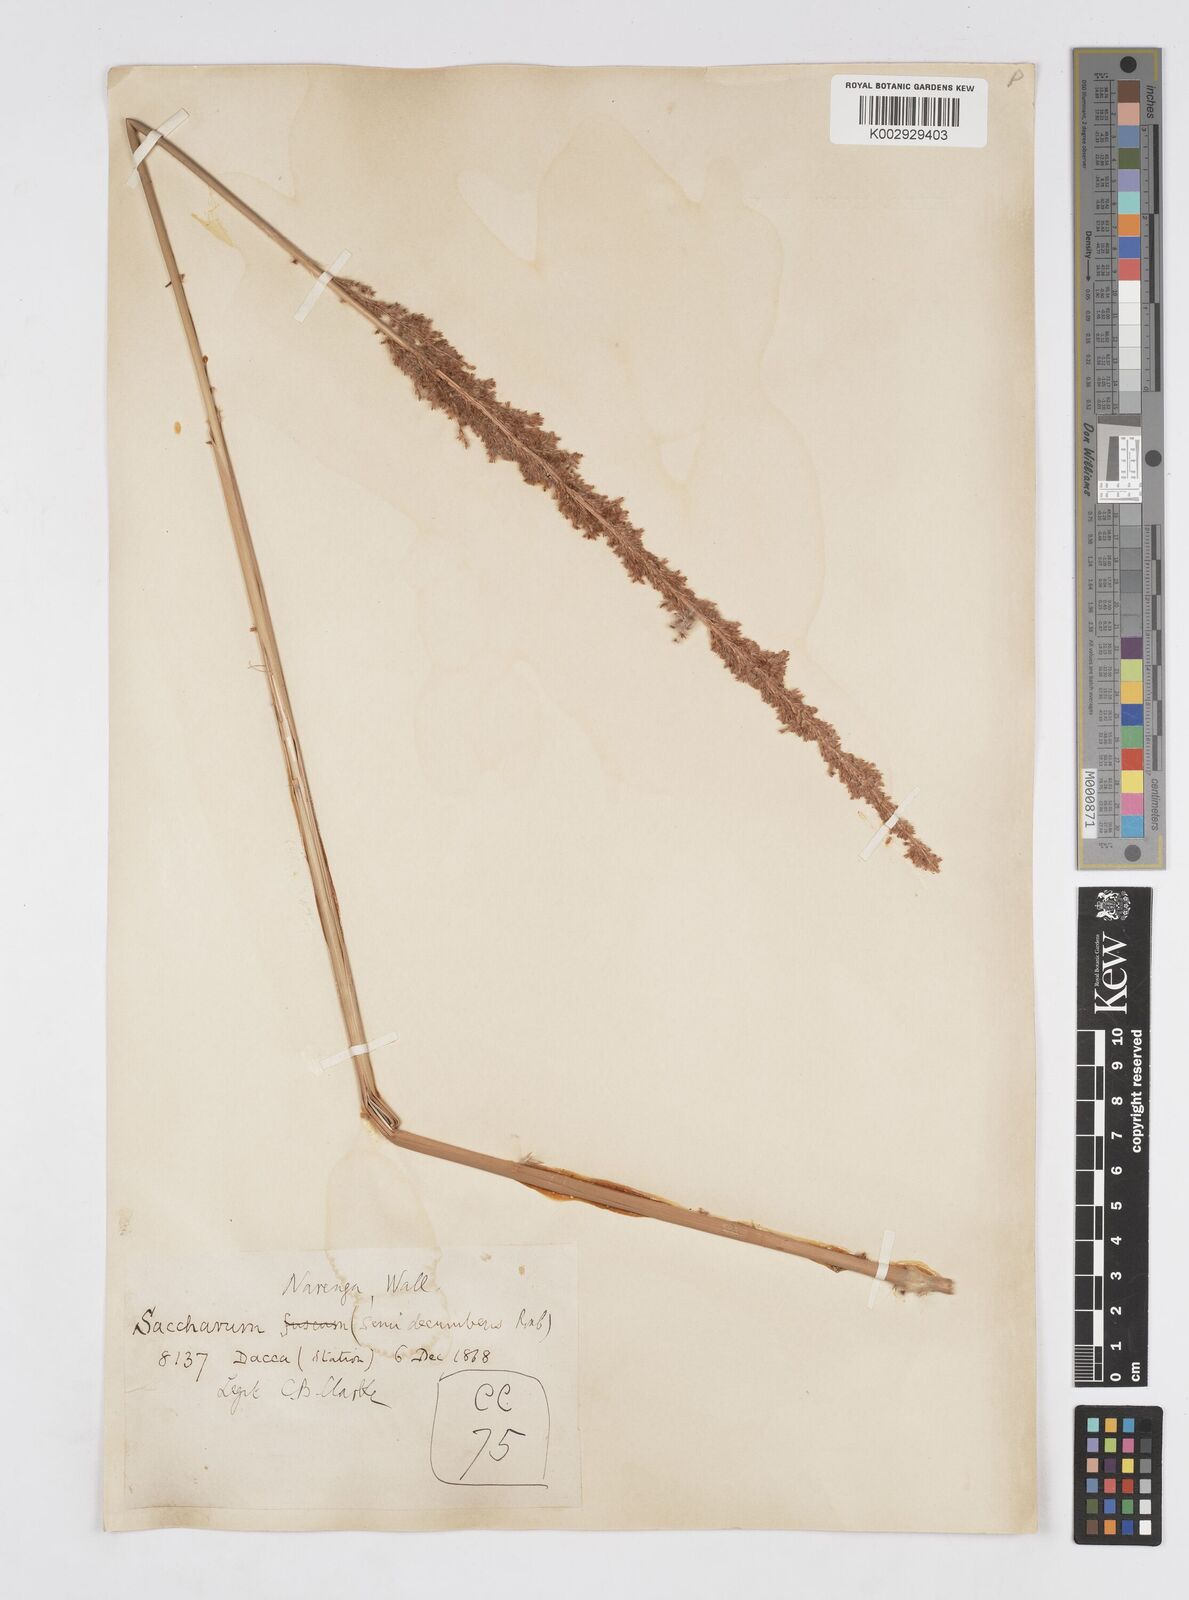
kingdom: Plantae
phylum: Tracheophyta
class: Liliopsida
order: Poales
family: Poaceae
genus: Narenga
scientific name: Narenga porphyrocoma
